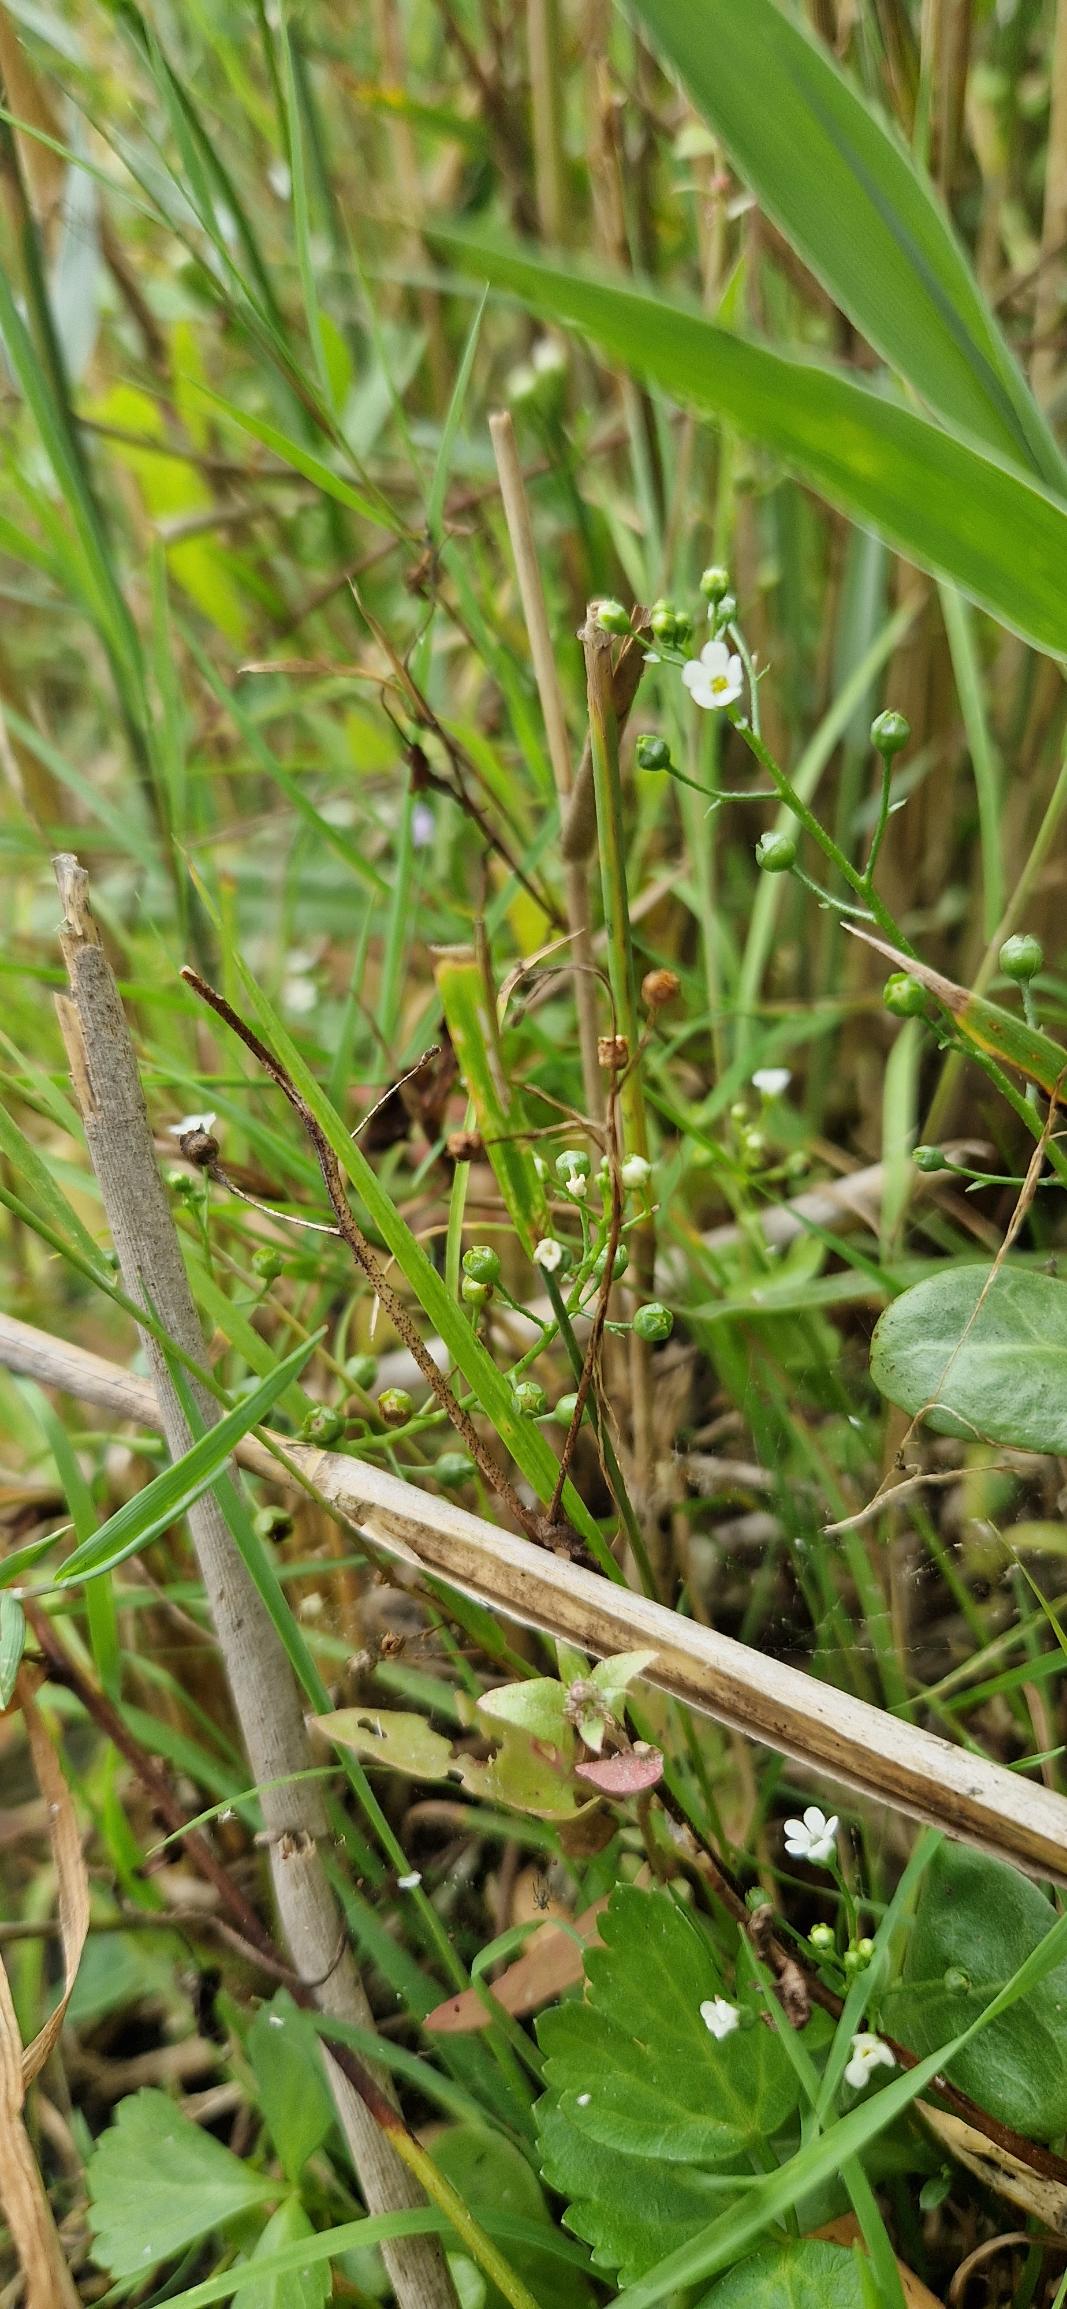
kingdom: Plantae
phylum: Tracheophyta
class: Magnoliopsida
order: Ericales
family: Primulaceae
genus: Samolus
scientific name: Samolus valerandi
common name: Samel
